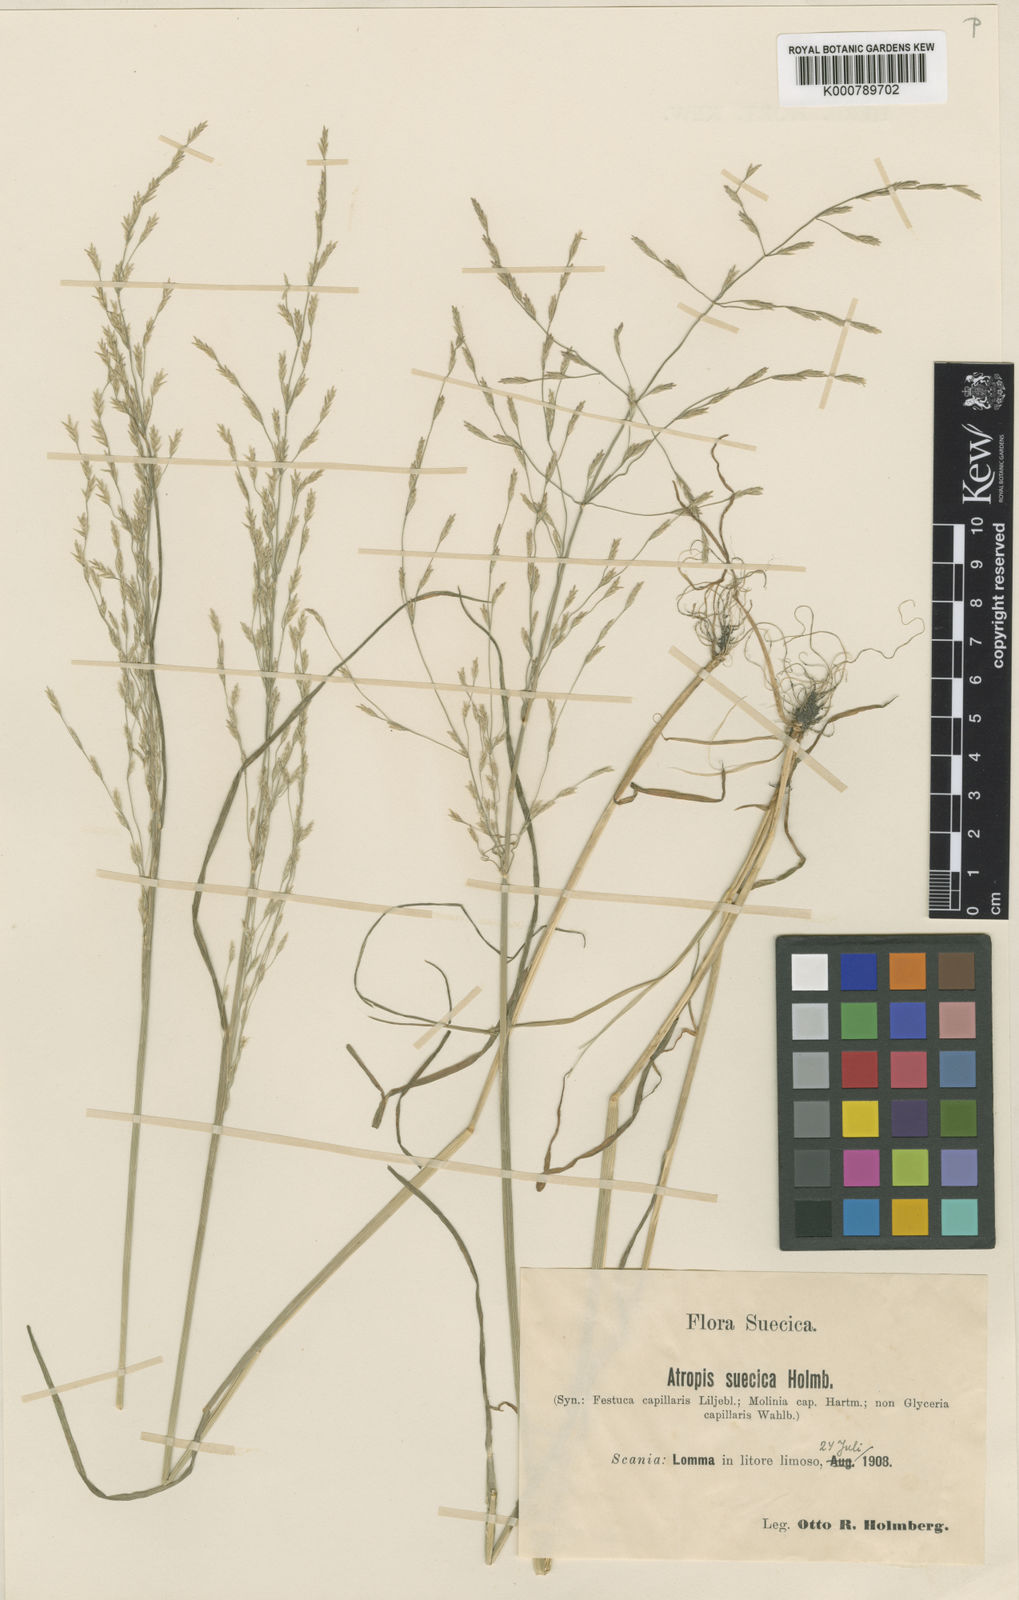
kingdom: Plantae
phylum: Tracheophyta
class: Liliopsida
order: Poales
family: Poaceae
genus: Puccinellia
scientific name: Puccinellia distans
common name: Weeping alkaligrass
